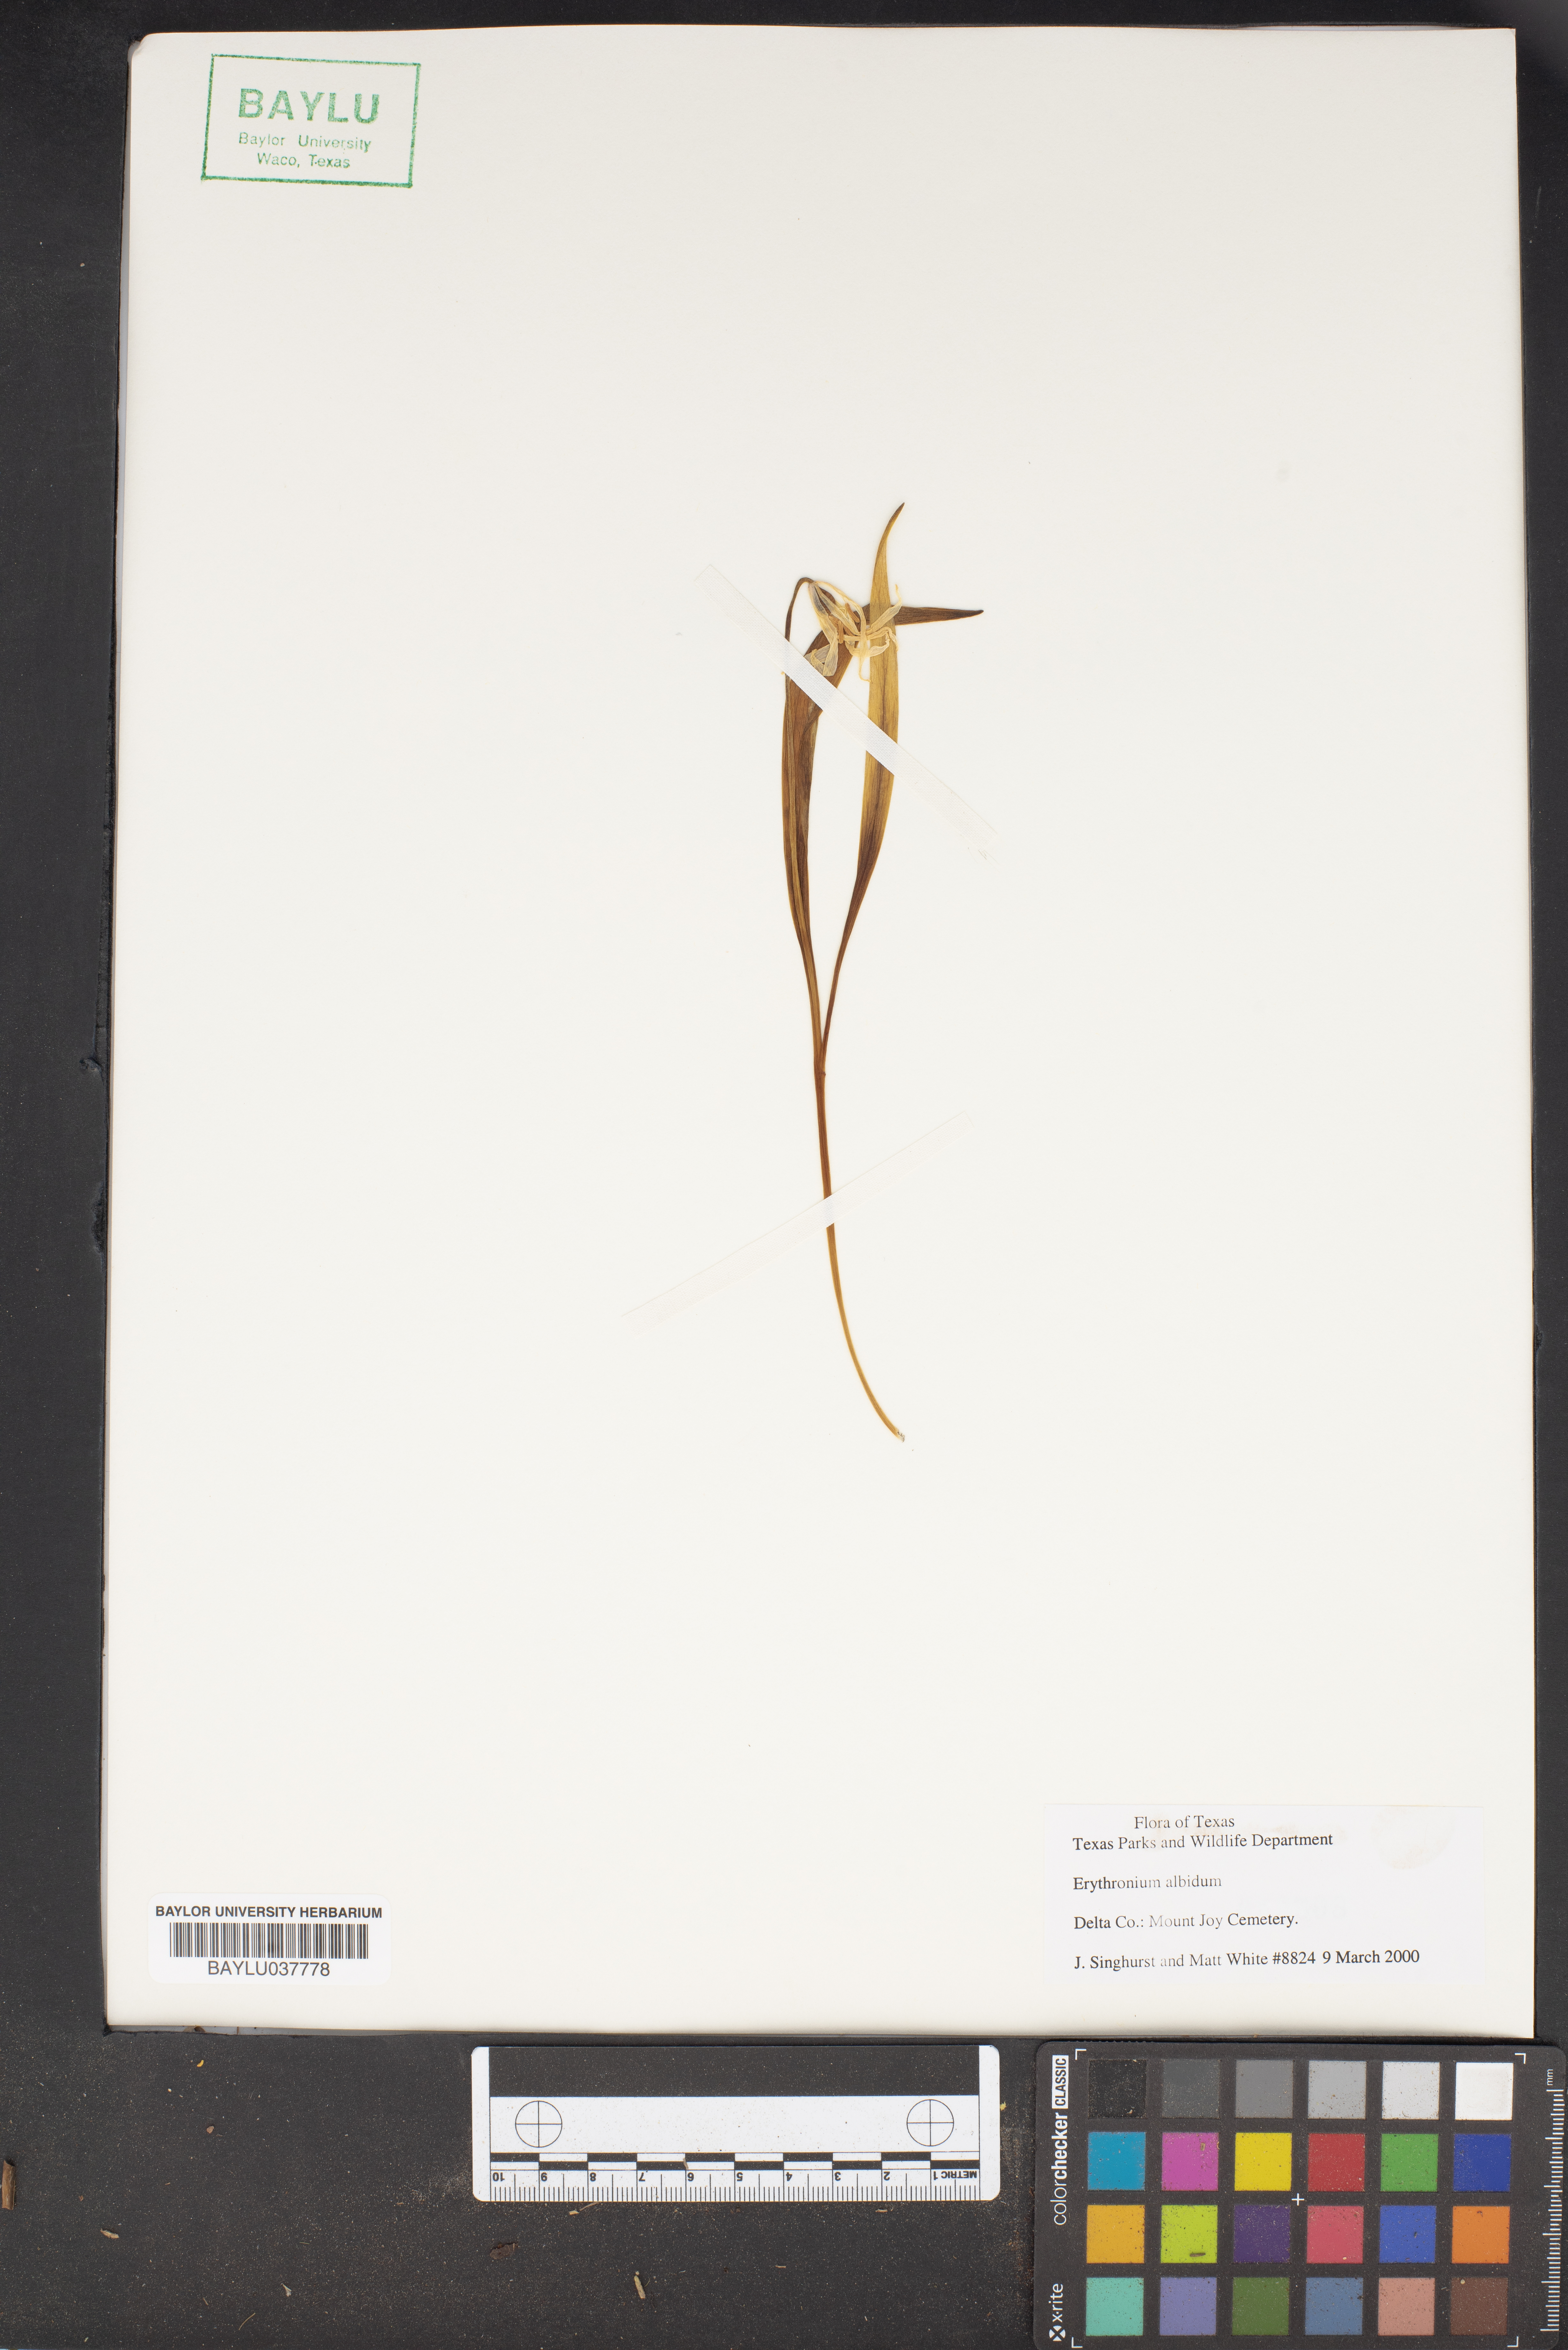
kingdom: Plantae
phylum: Tracheophyta
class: Liliopsida
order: Liliales
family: Liliaceae
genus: Erythronium
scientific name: Erythronium albidum
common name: White trout-lily
